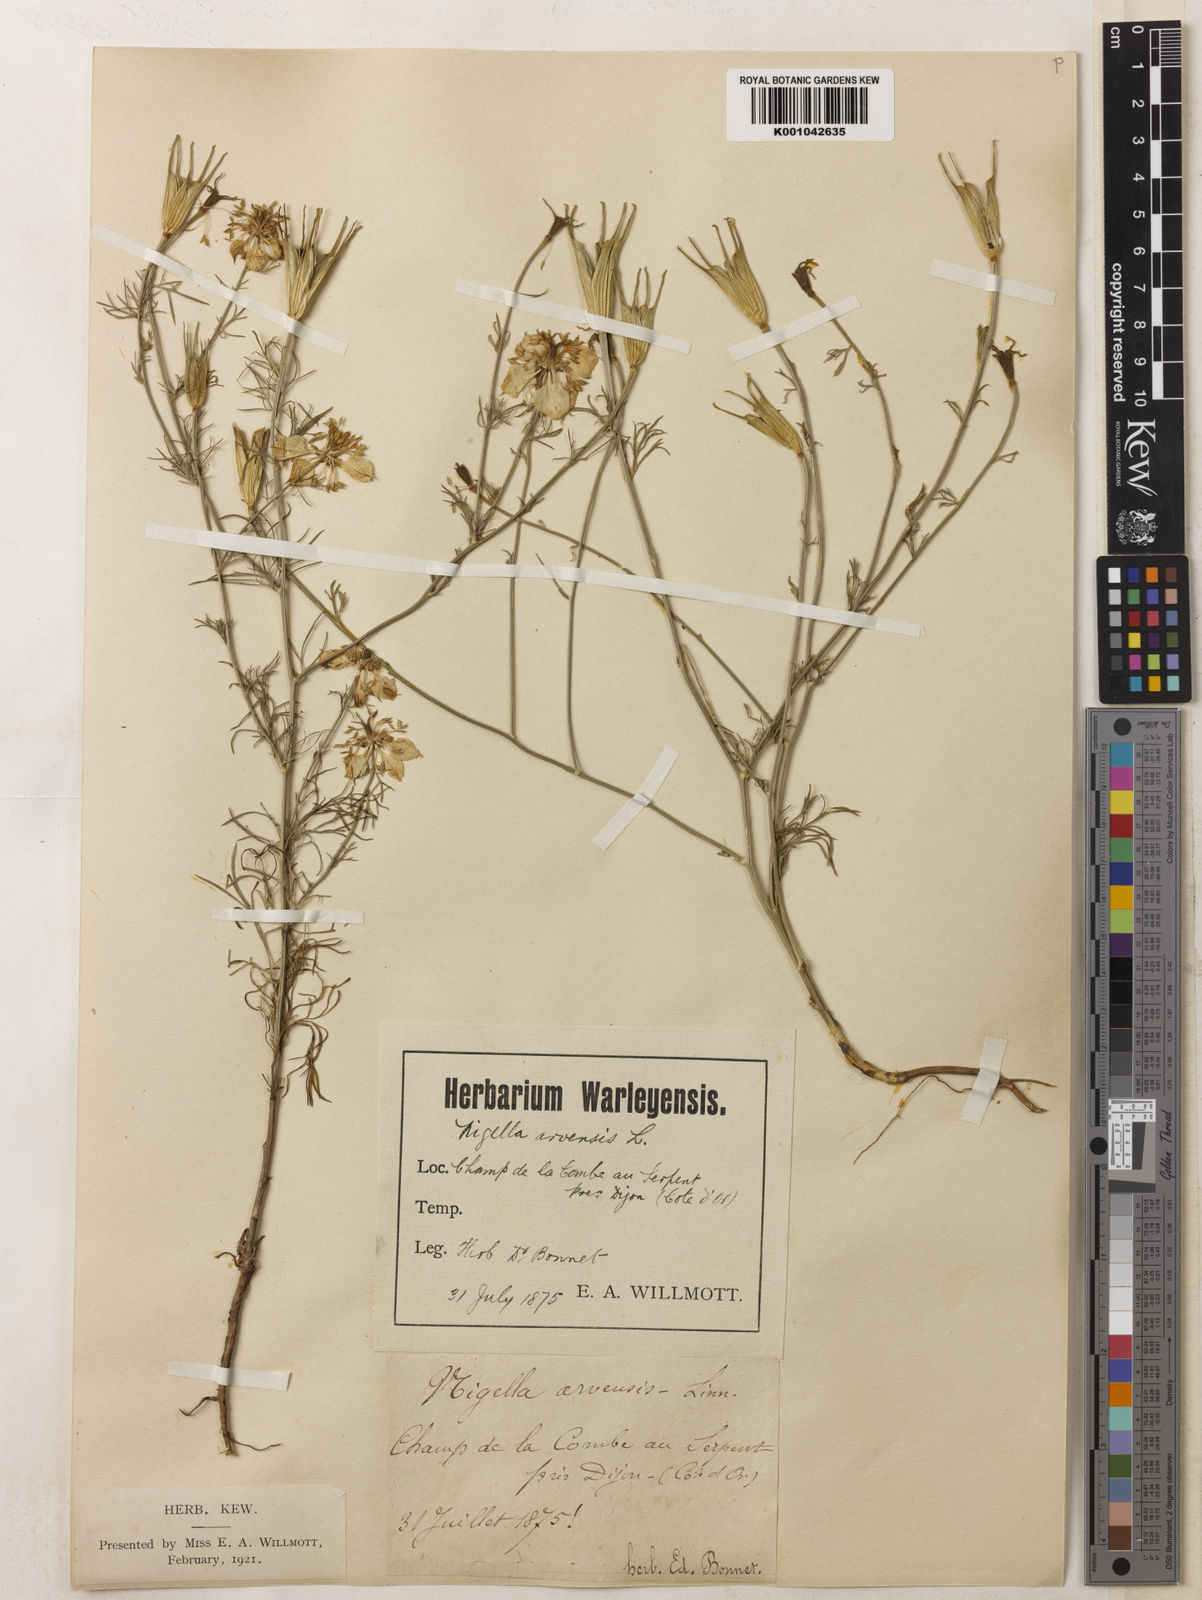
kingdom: Plantae
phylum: Tracheophyta
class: Magnoliopsida
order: Ranunculales
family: Ranunculaceae
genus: Nigella
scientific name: Nigella arvensis
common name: Wild fennel-flower
